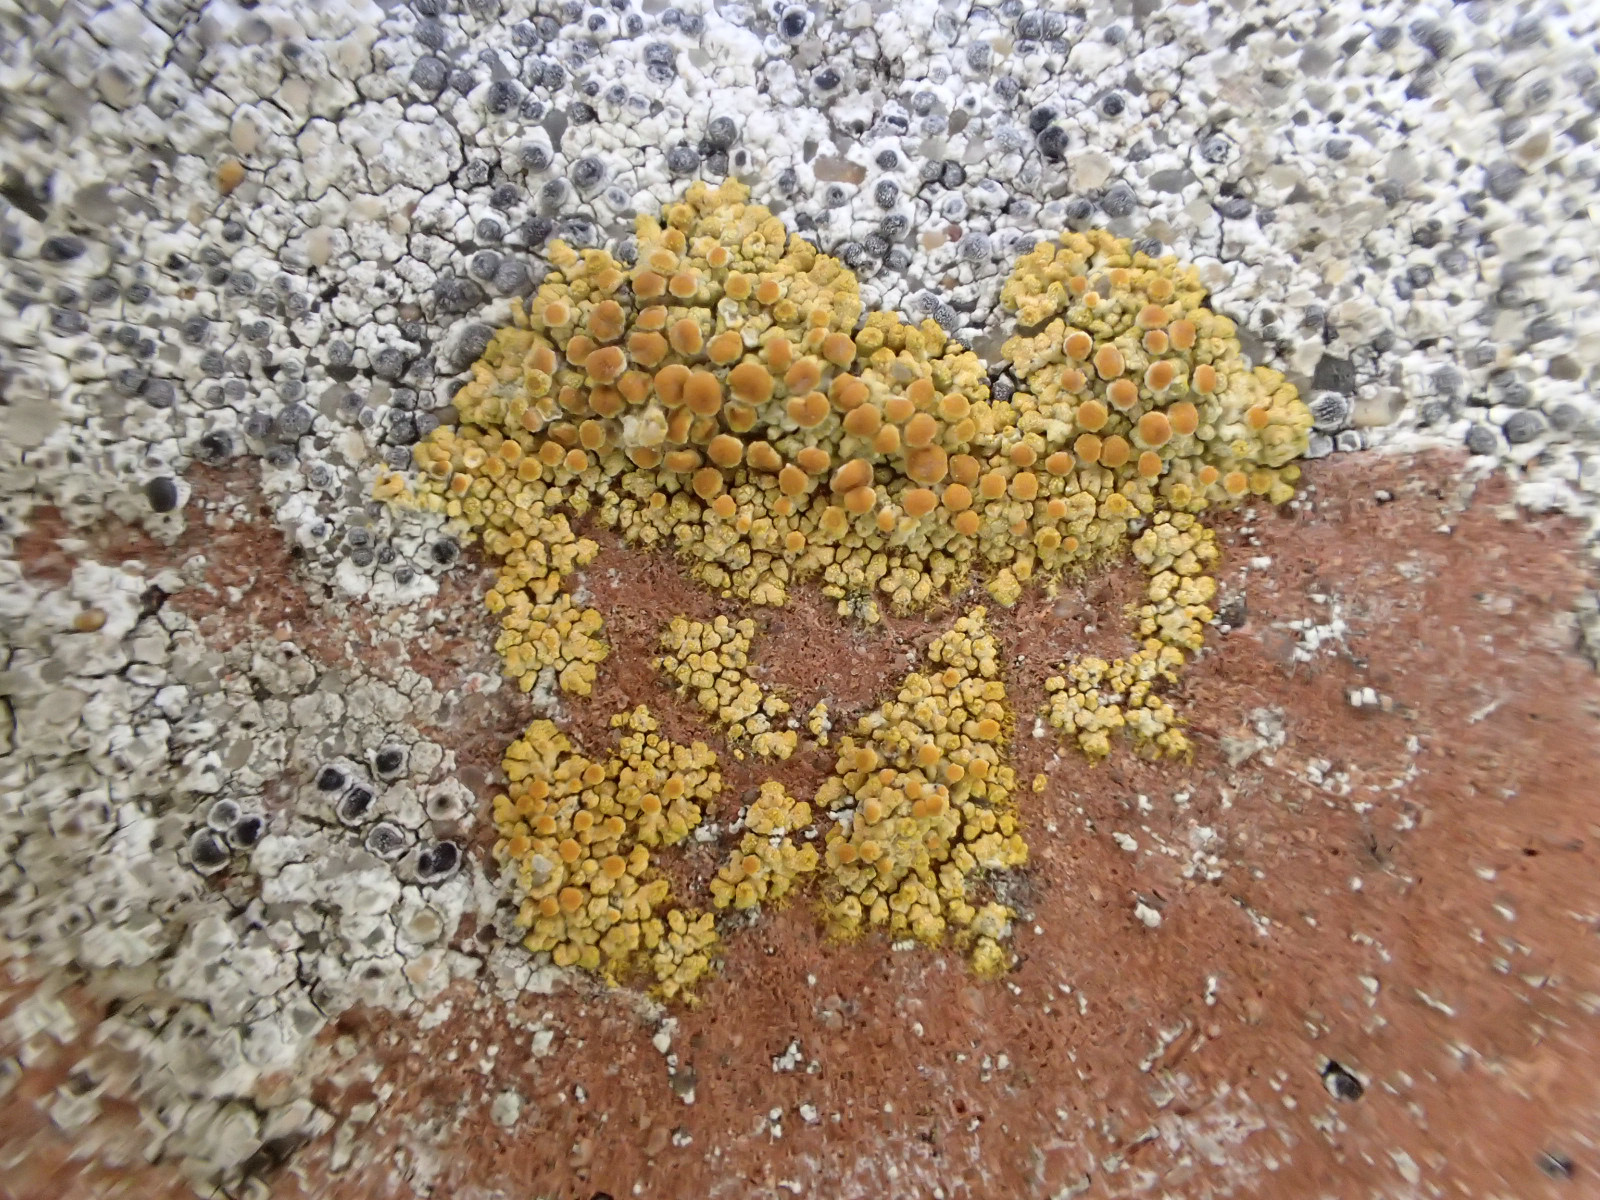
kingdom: Fungi
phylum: Ascomycota
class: Lecanoromycetes
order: Teloschistales
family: Teloschistaceae
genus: Calogaya
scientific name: Calogaya saxicola
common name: mur-orangelav
